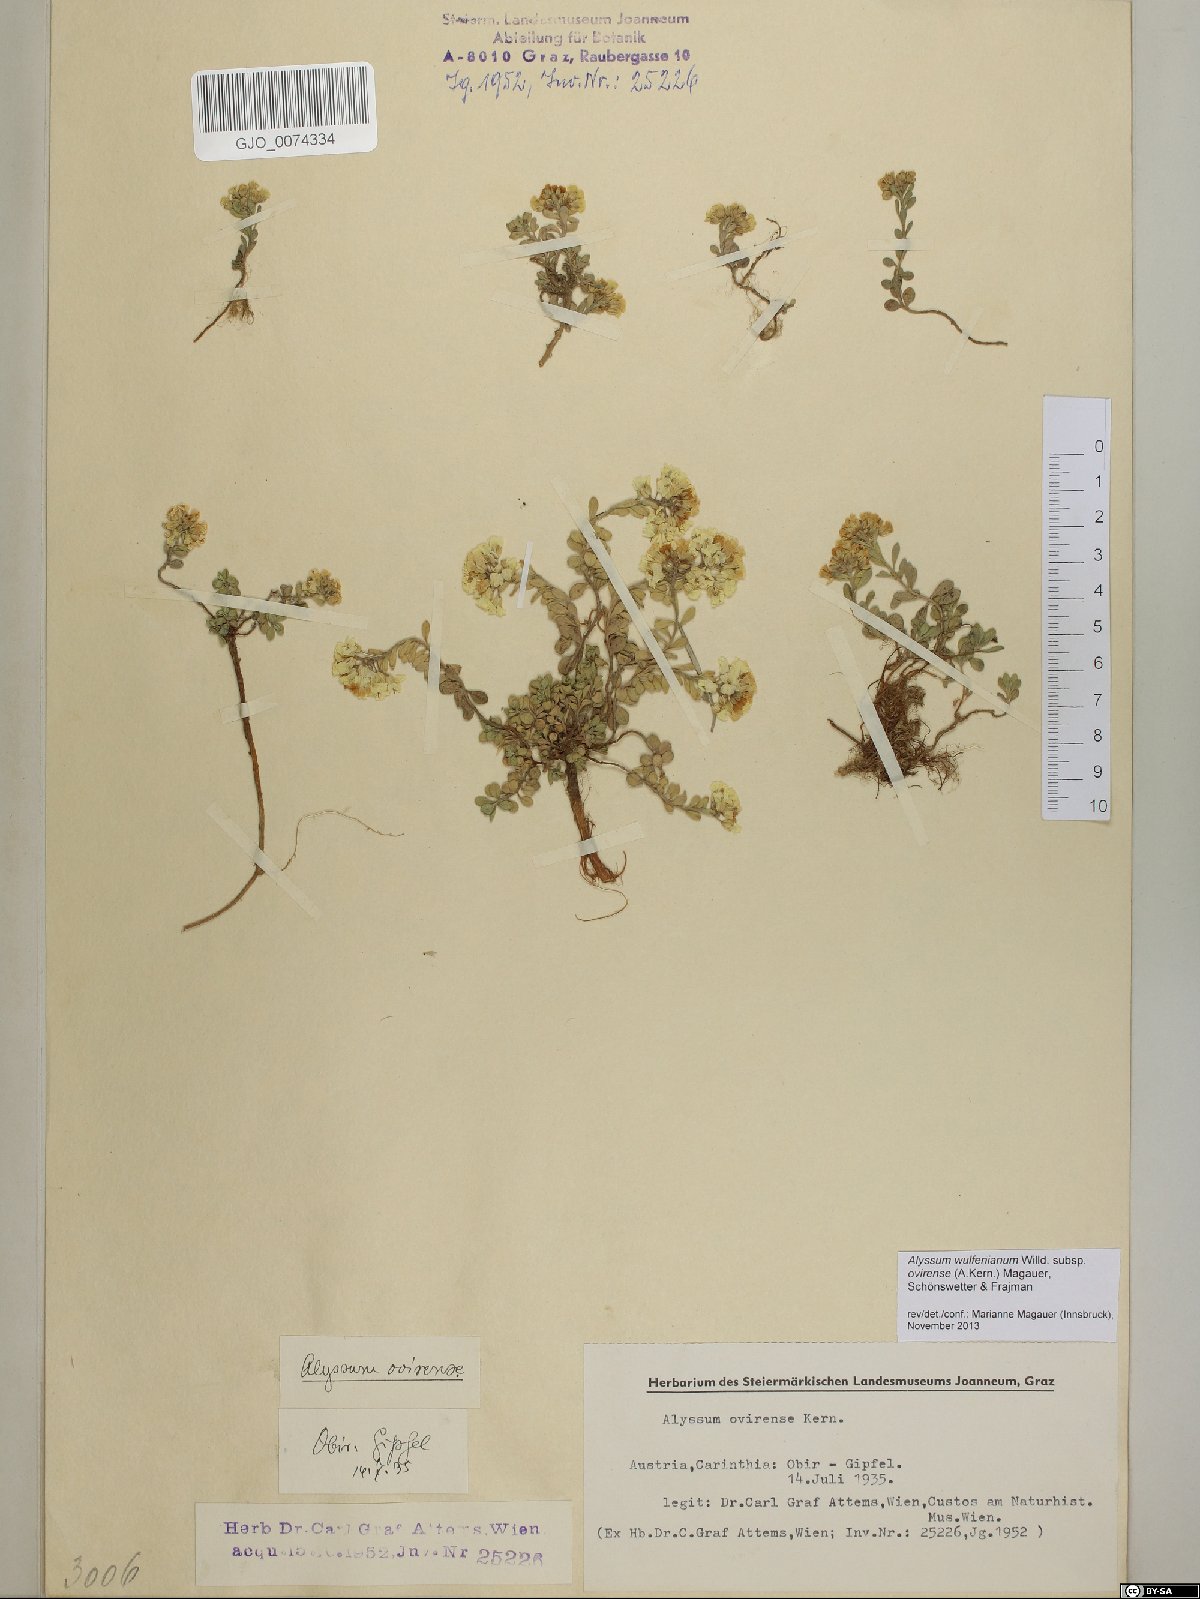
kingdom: Plantae
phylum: Tracheophyta
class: Magnoliopsida
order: Brassicales
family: Brassicaceae
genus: Alyssum
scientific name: Alyssum wulfenianum
